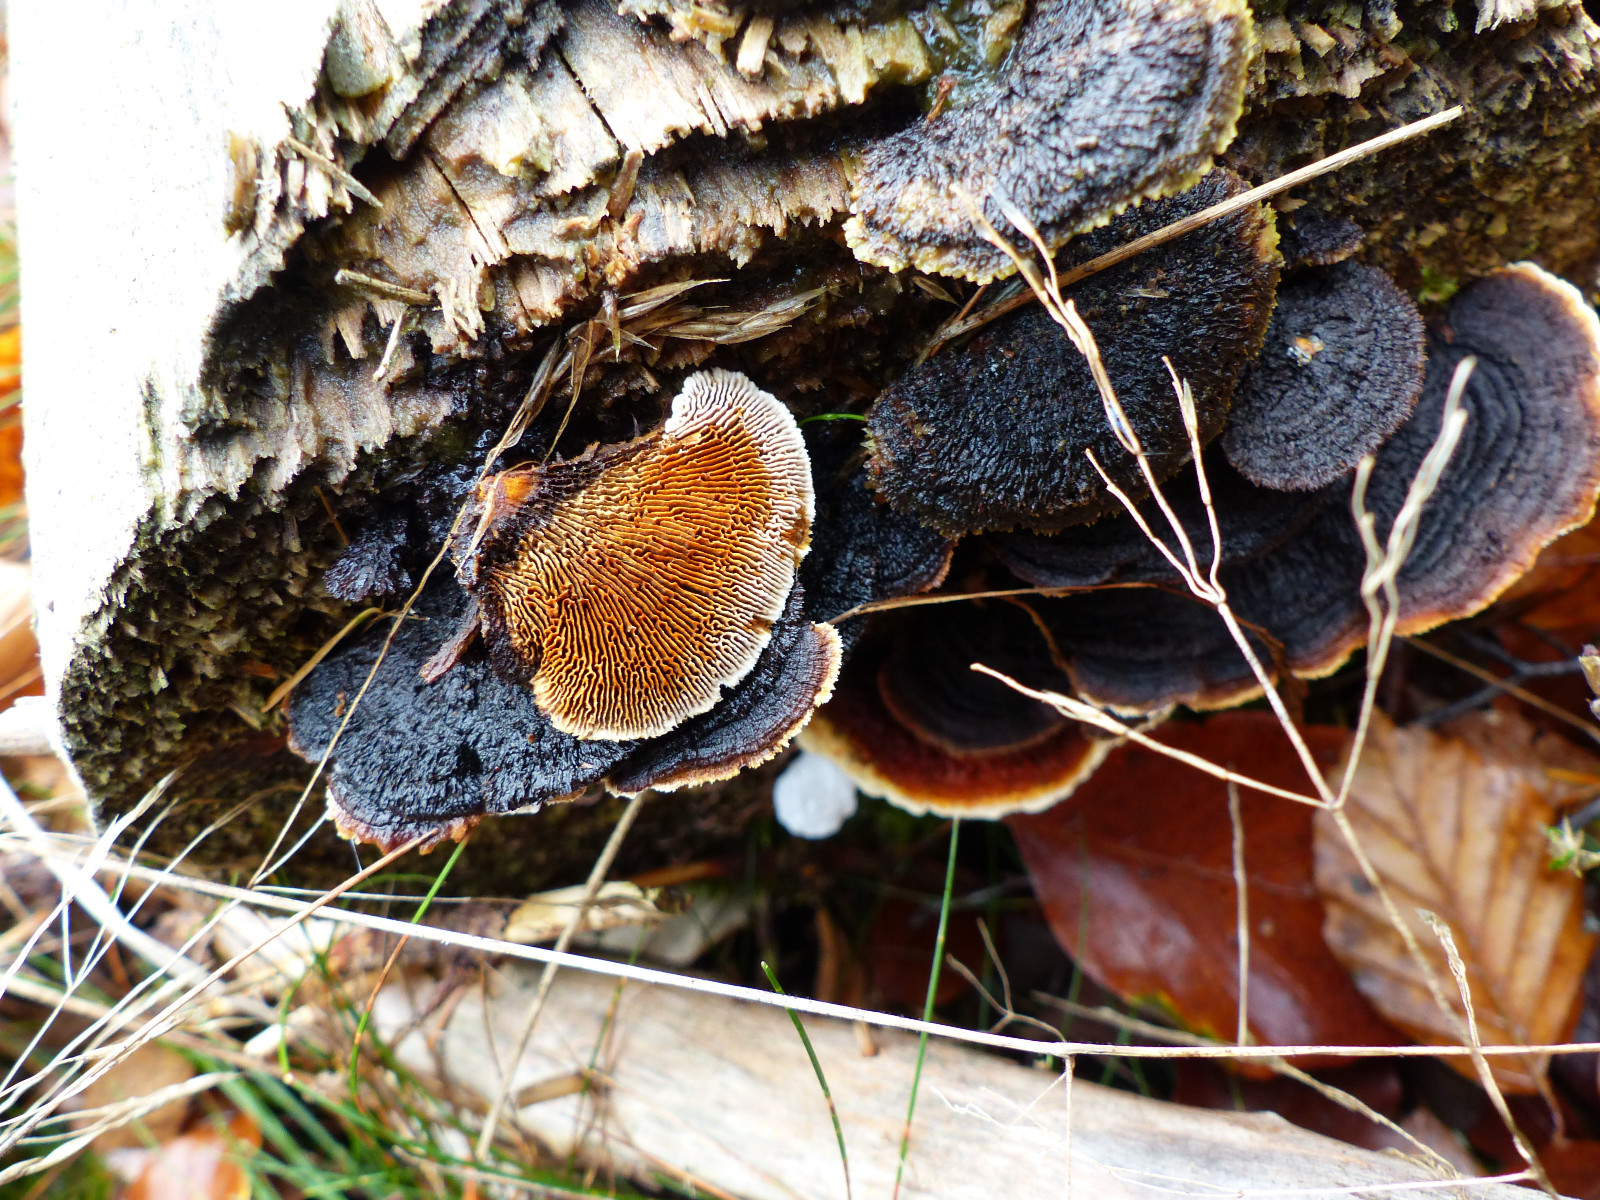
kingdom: Fungi
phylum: Basidiomycota
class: Agaricomycetes
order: Gloeophyllales
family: Gloeophyllaceae
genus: Gloeophyllum
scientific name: Gloeophyllum sepiarium
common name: fyrre-korkhat
